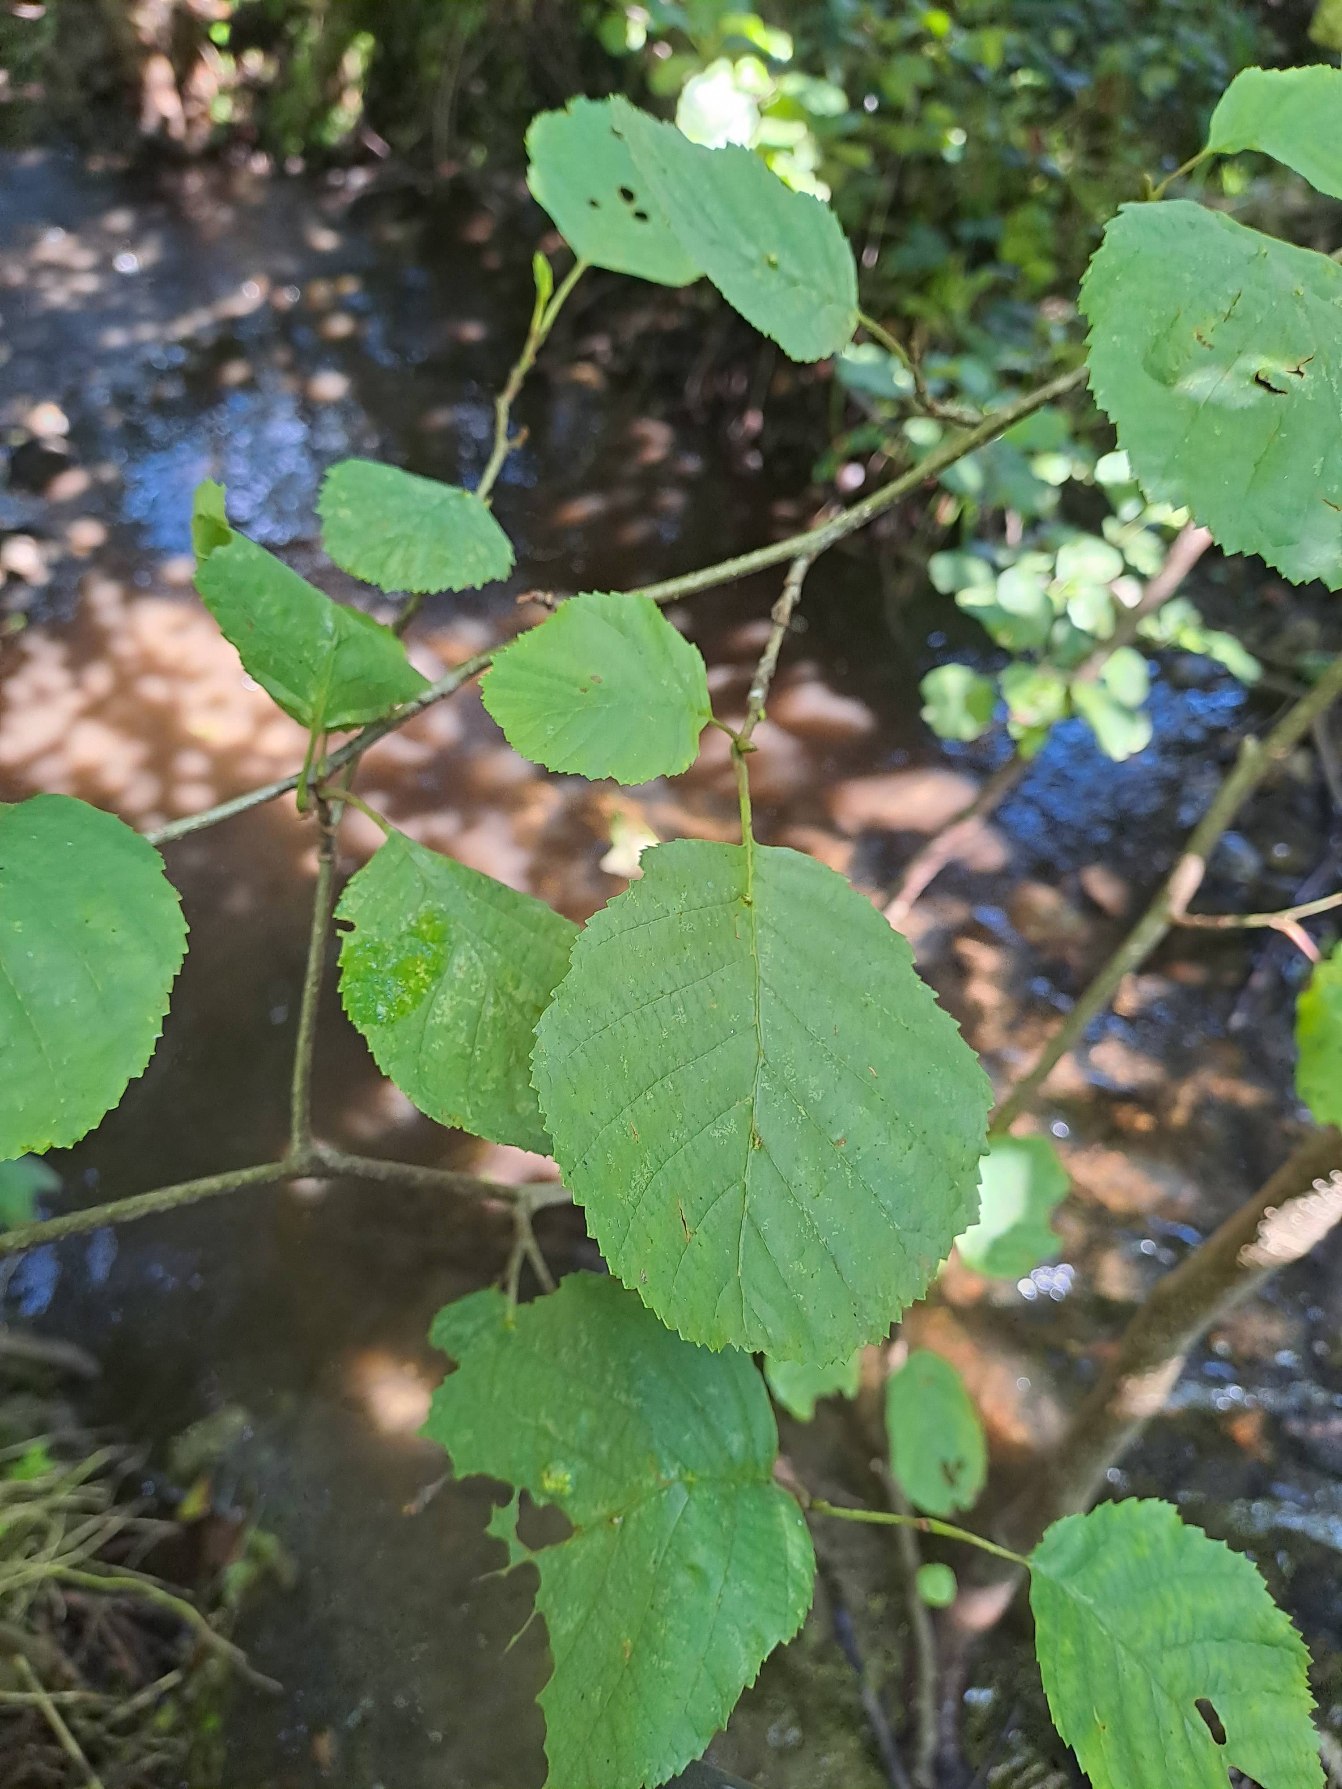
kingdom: Plantae
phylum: Tracheophyta
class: Magnoliopsida
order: Fagales
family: Betulaceae
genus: Alnus
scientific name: Alnus glutinosa
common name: Rød-el
